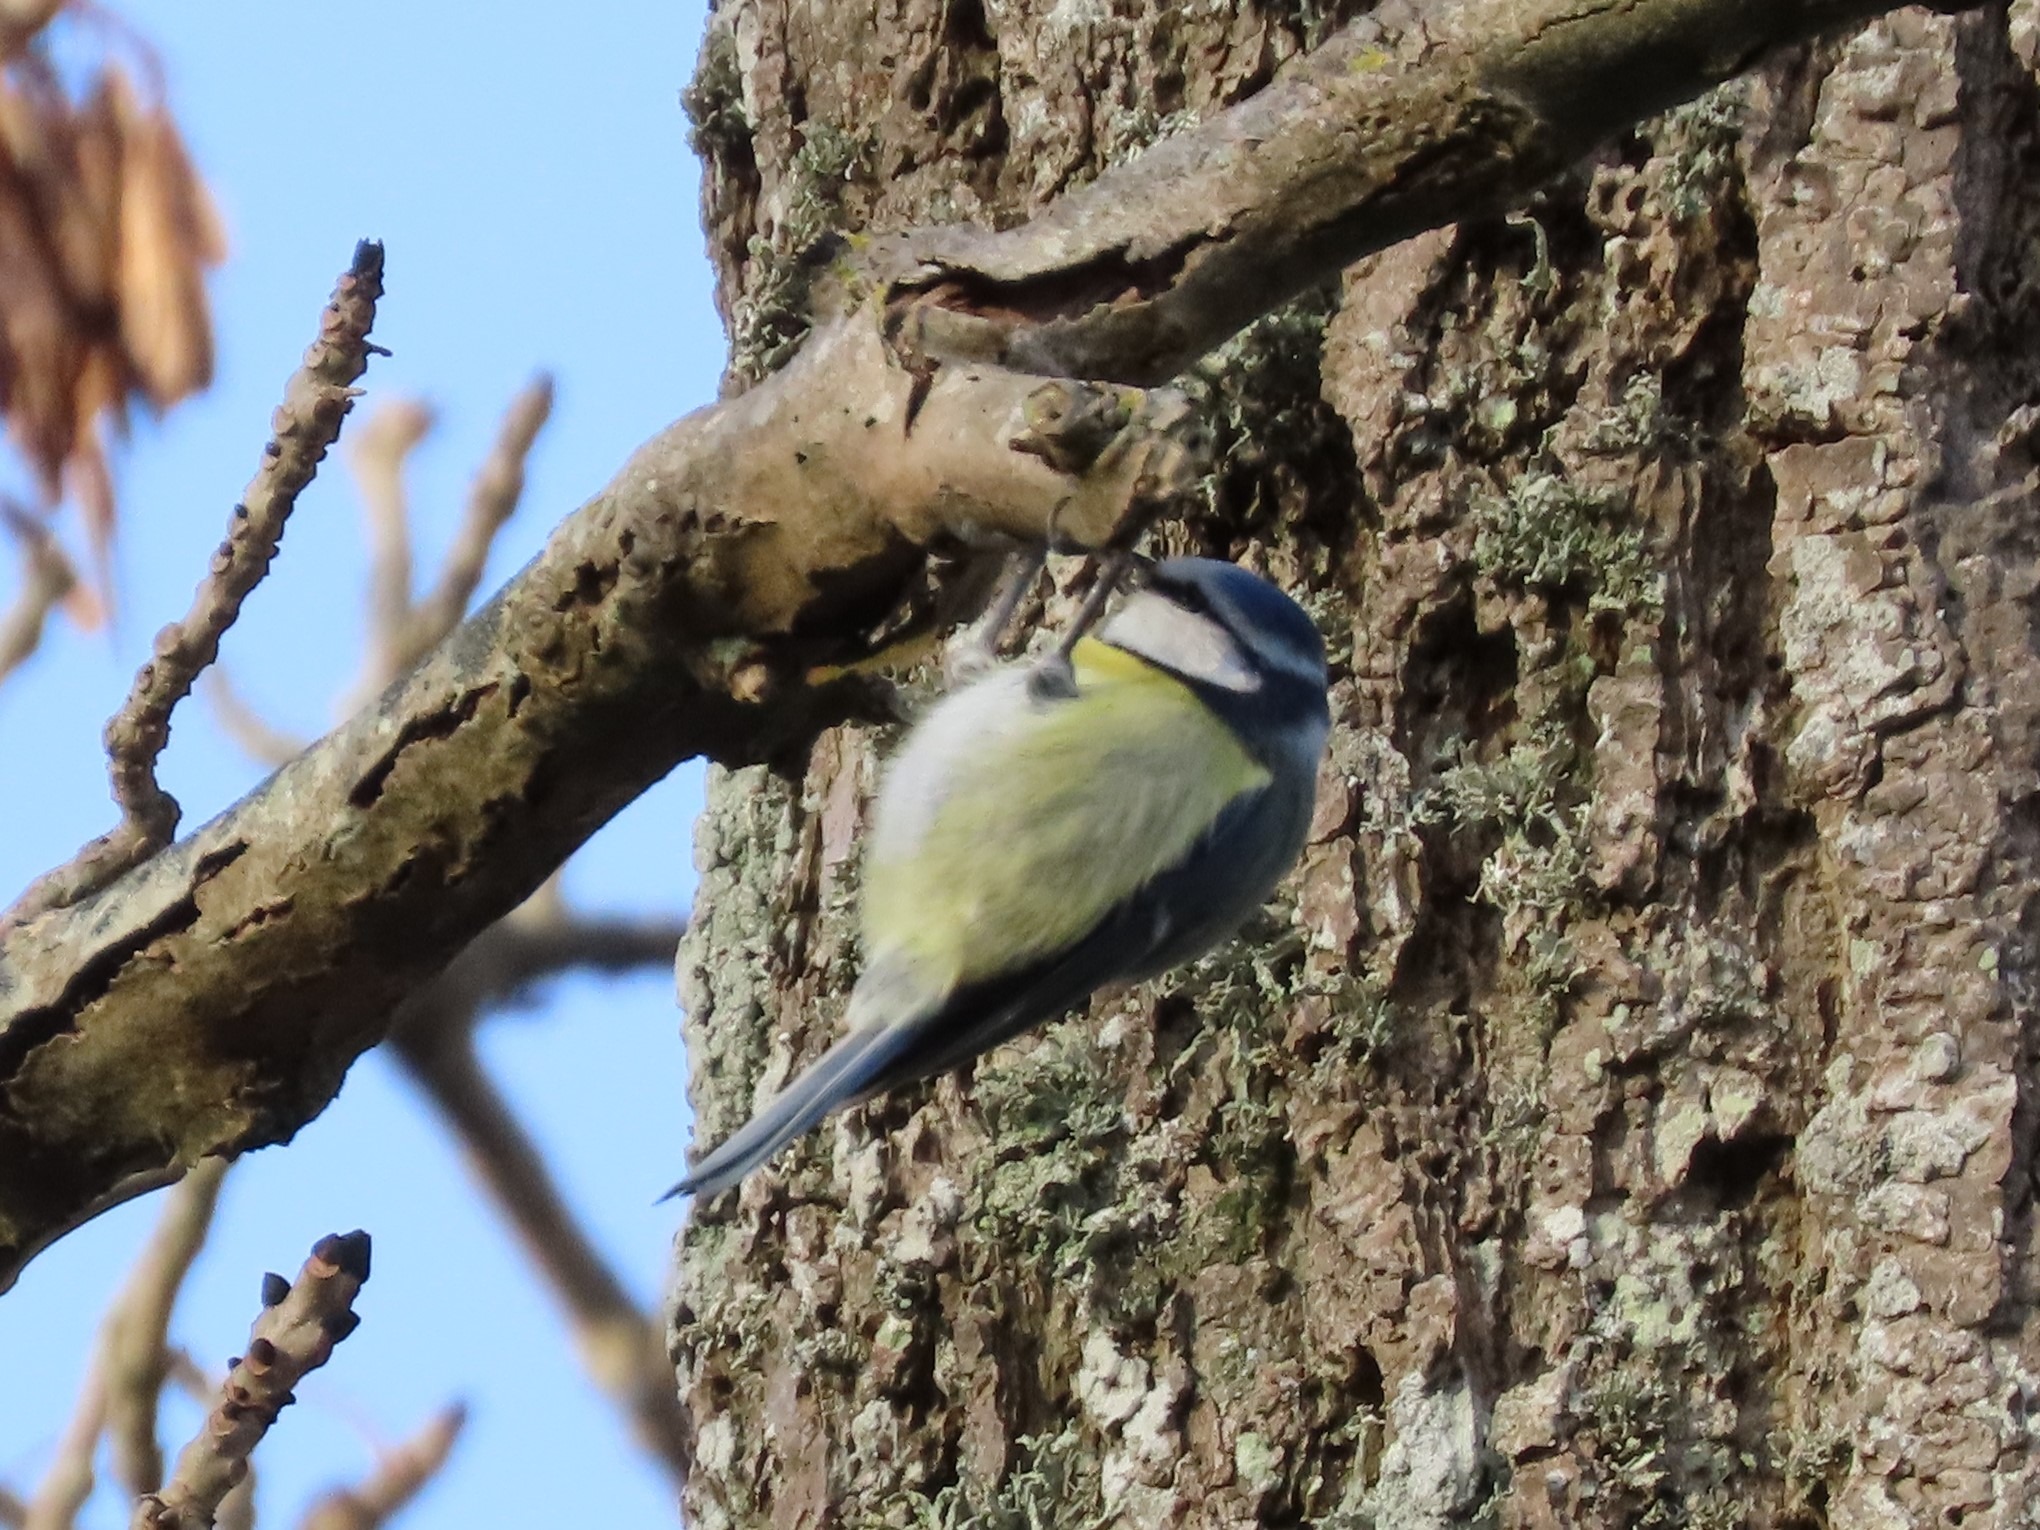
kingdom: Animalia
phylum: Chordata
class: Aves
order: Passeriformes
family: Paridae
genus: Cyanistes
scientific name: Cyanistes caeruleus
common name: Blåmejse
